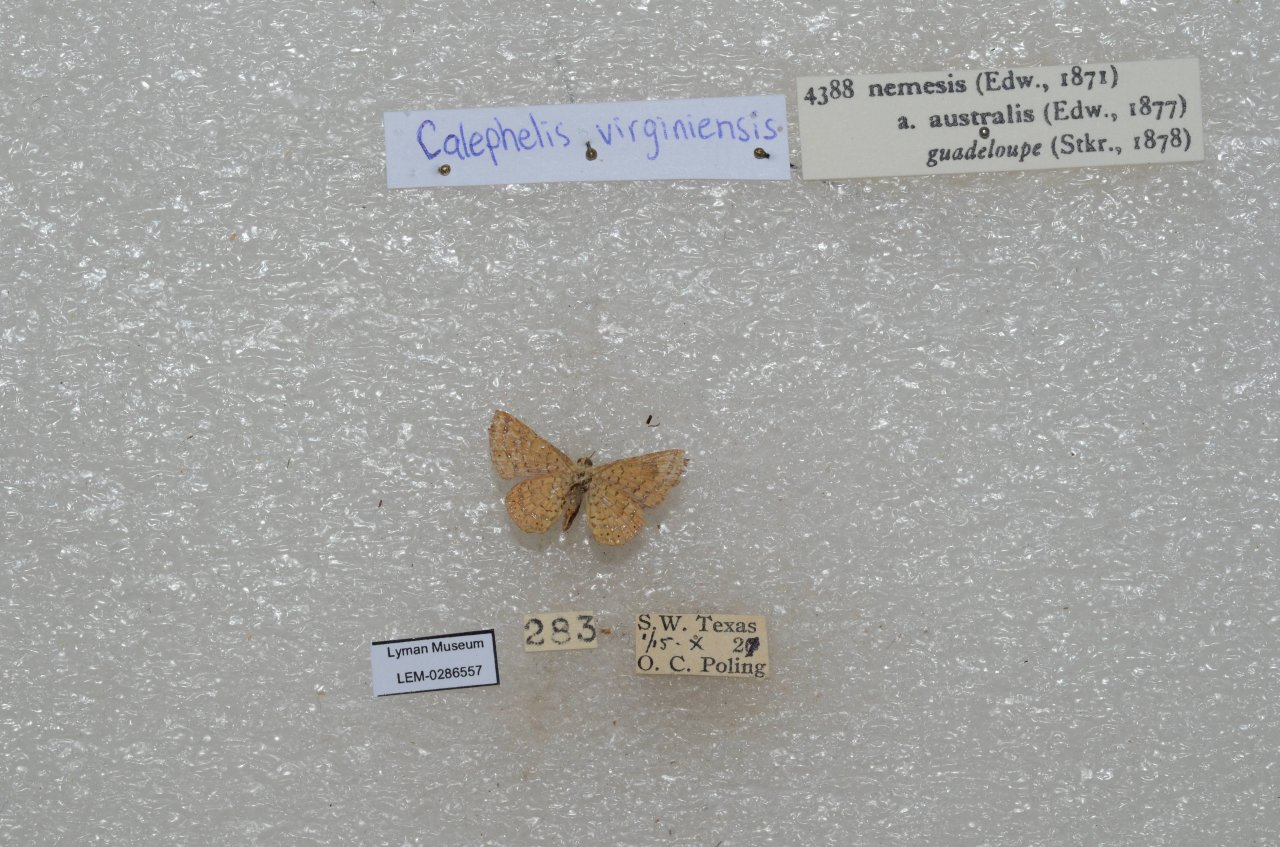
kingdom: Animalia
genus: Calephelis
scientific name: Calephelis nemesis
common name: Fatal Metalmark
